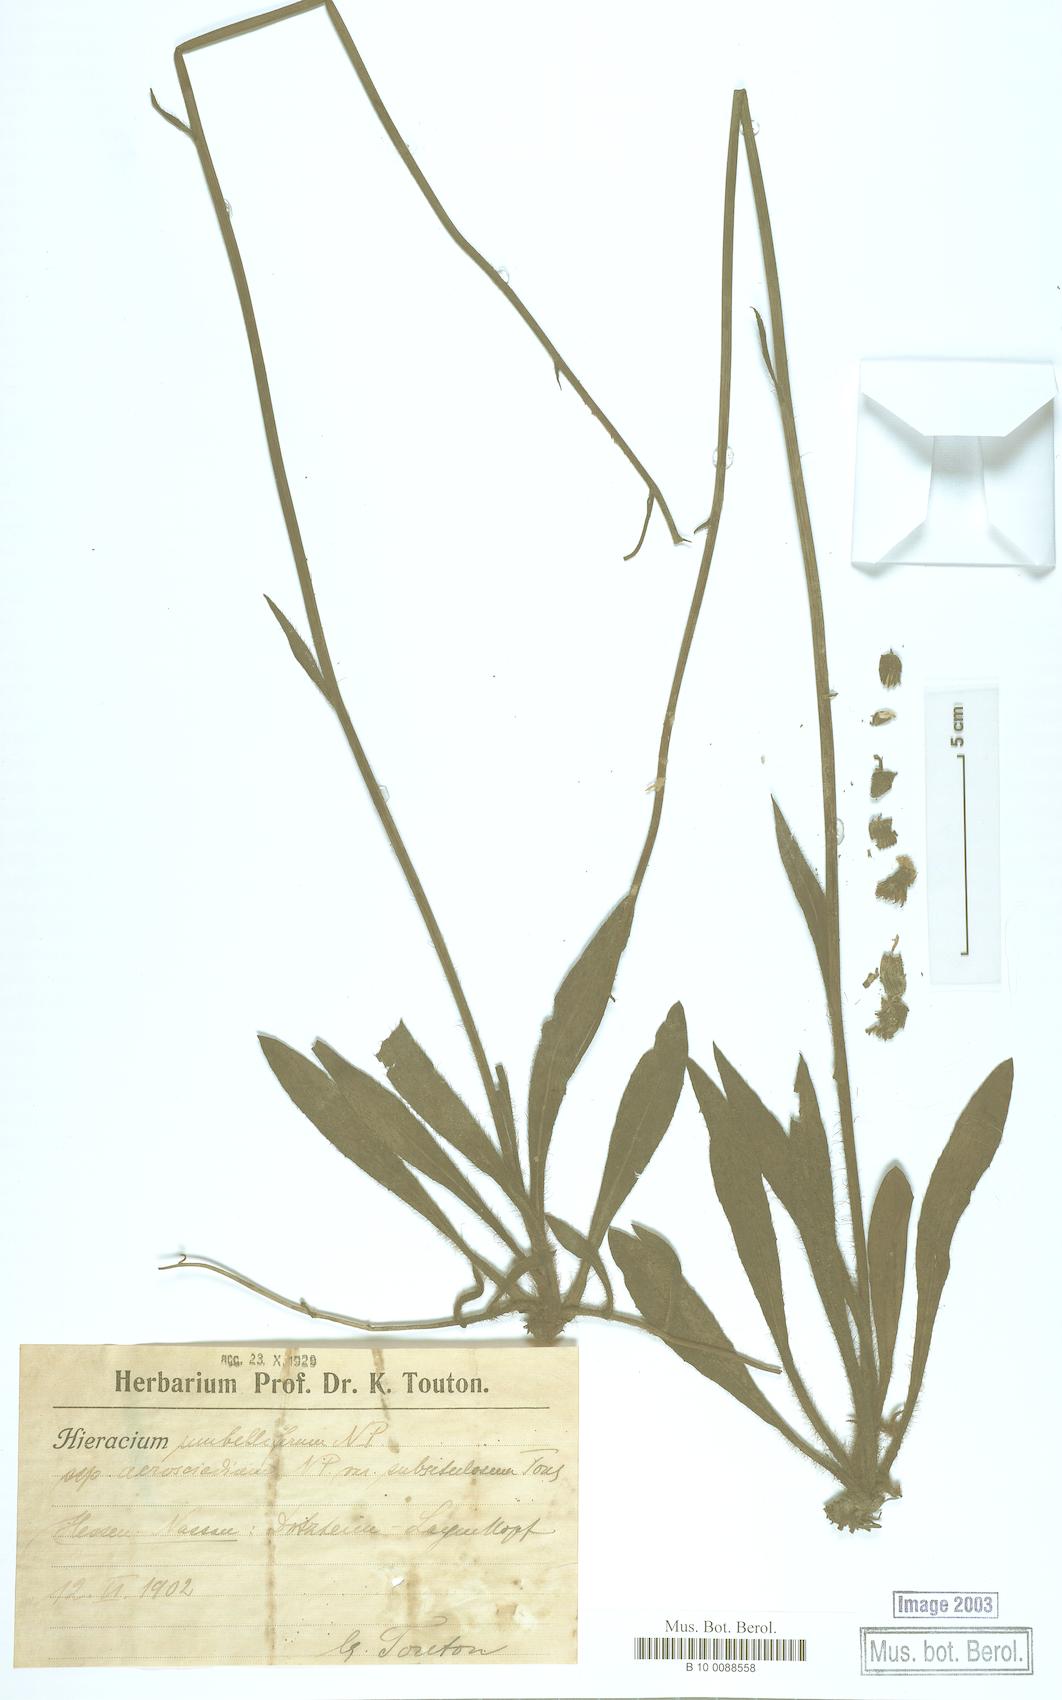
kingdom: Plantae
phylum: Tracheophyta
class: Magnoliopsida
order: Asterales
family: Asteraceae
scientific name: Asteraceae
